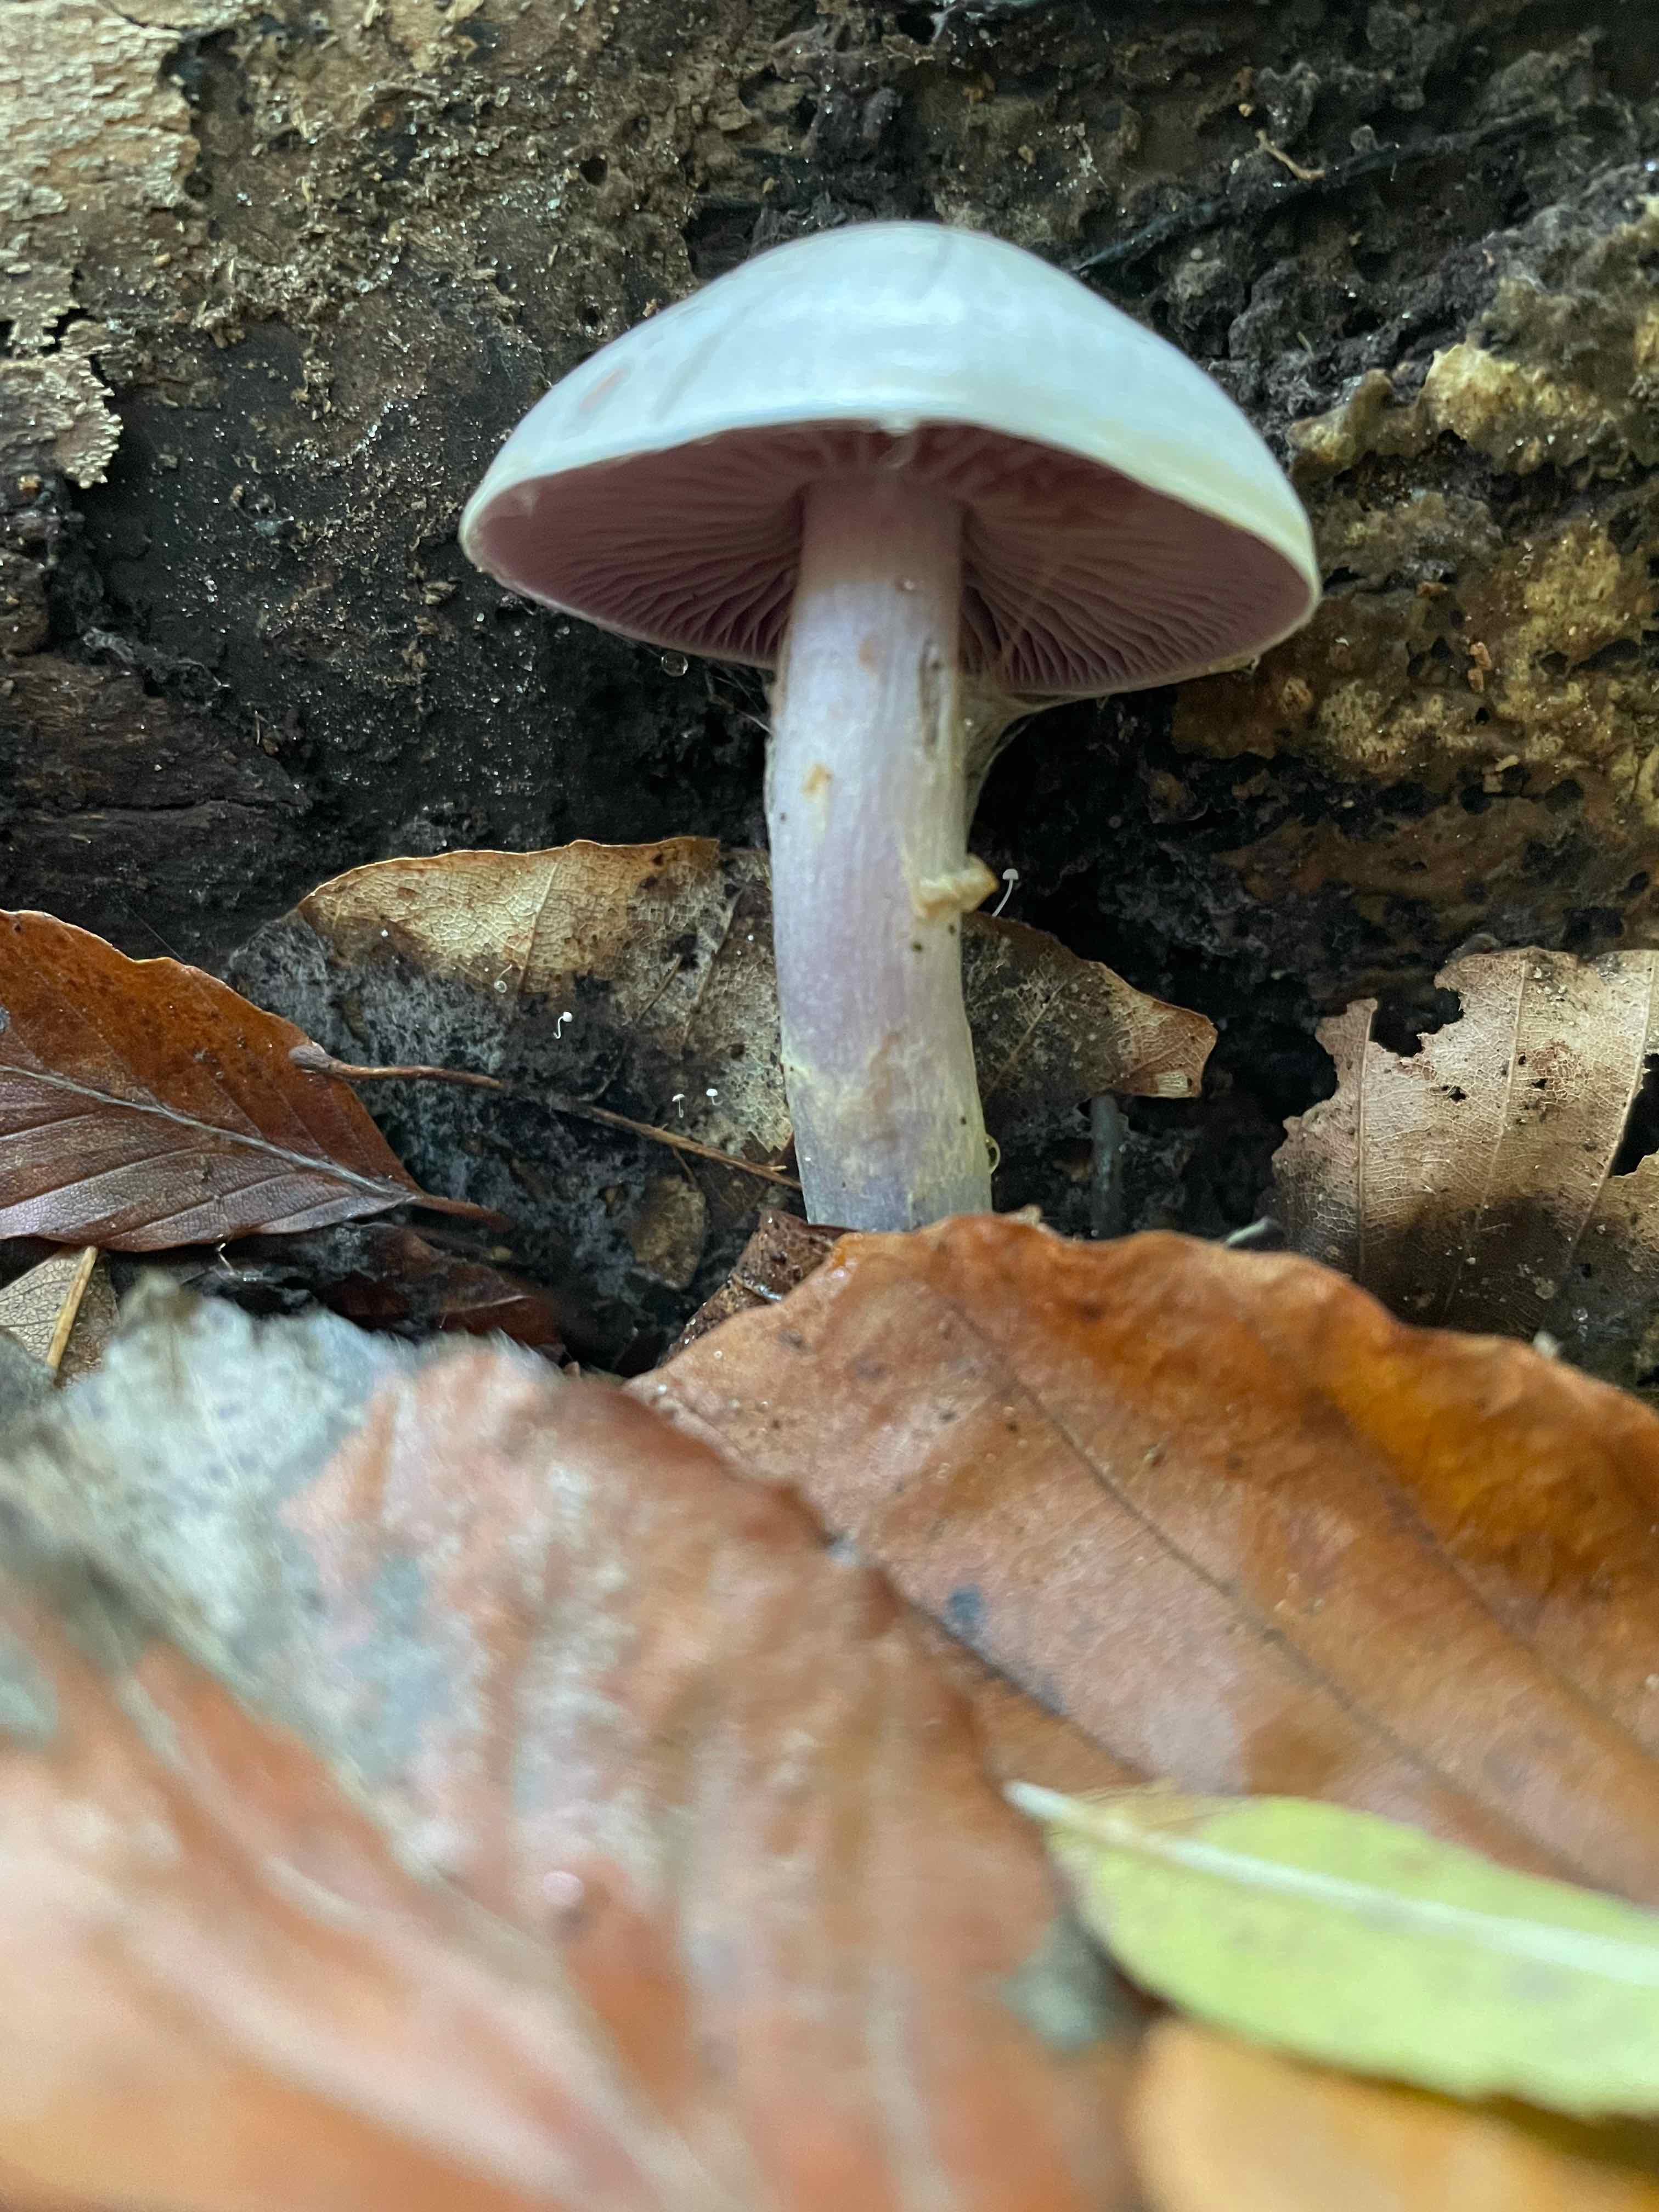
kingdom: Fungi
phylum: Basidiomycota
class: Agaricomycetes
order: Agaricales
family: Cortinariaceae
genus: Cortinarius
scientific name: Cortinarius
